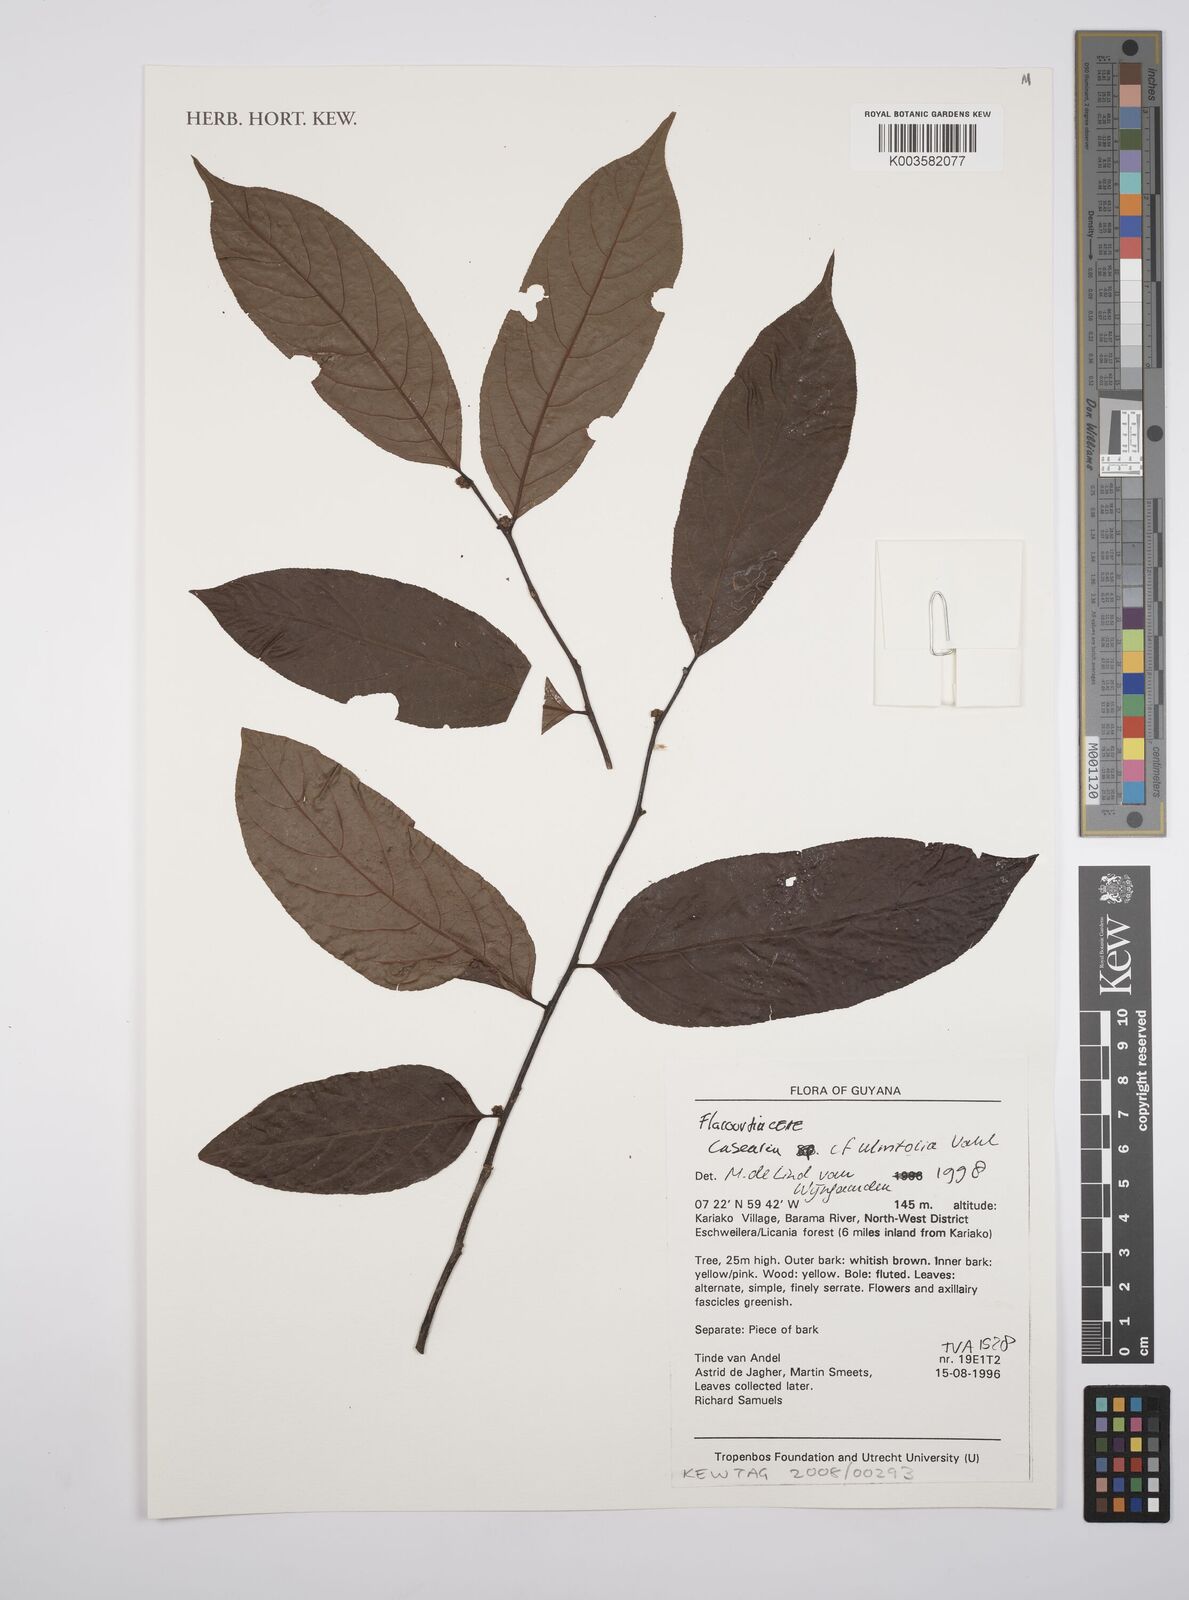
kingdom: Plantae
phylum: Tracheophyta
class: Magnoliopsida
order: Malpighiales
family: Salicaceae
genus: Casearia
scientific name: Casearia ulmifolia
